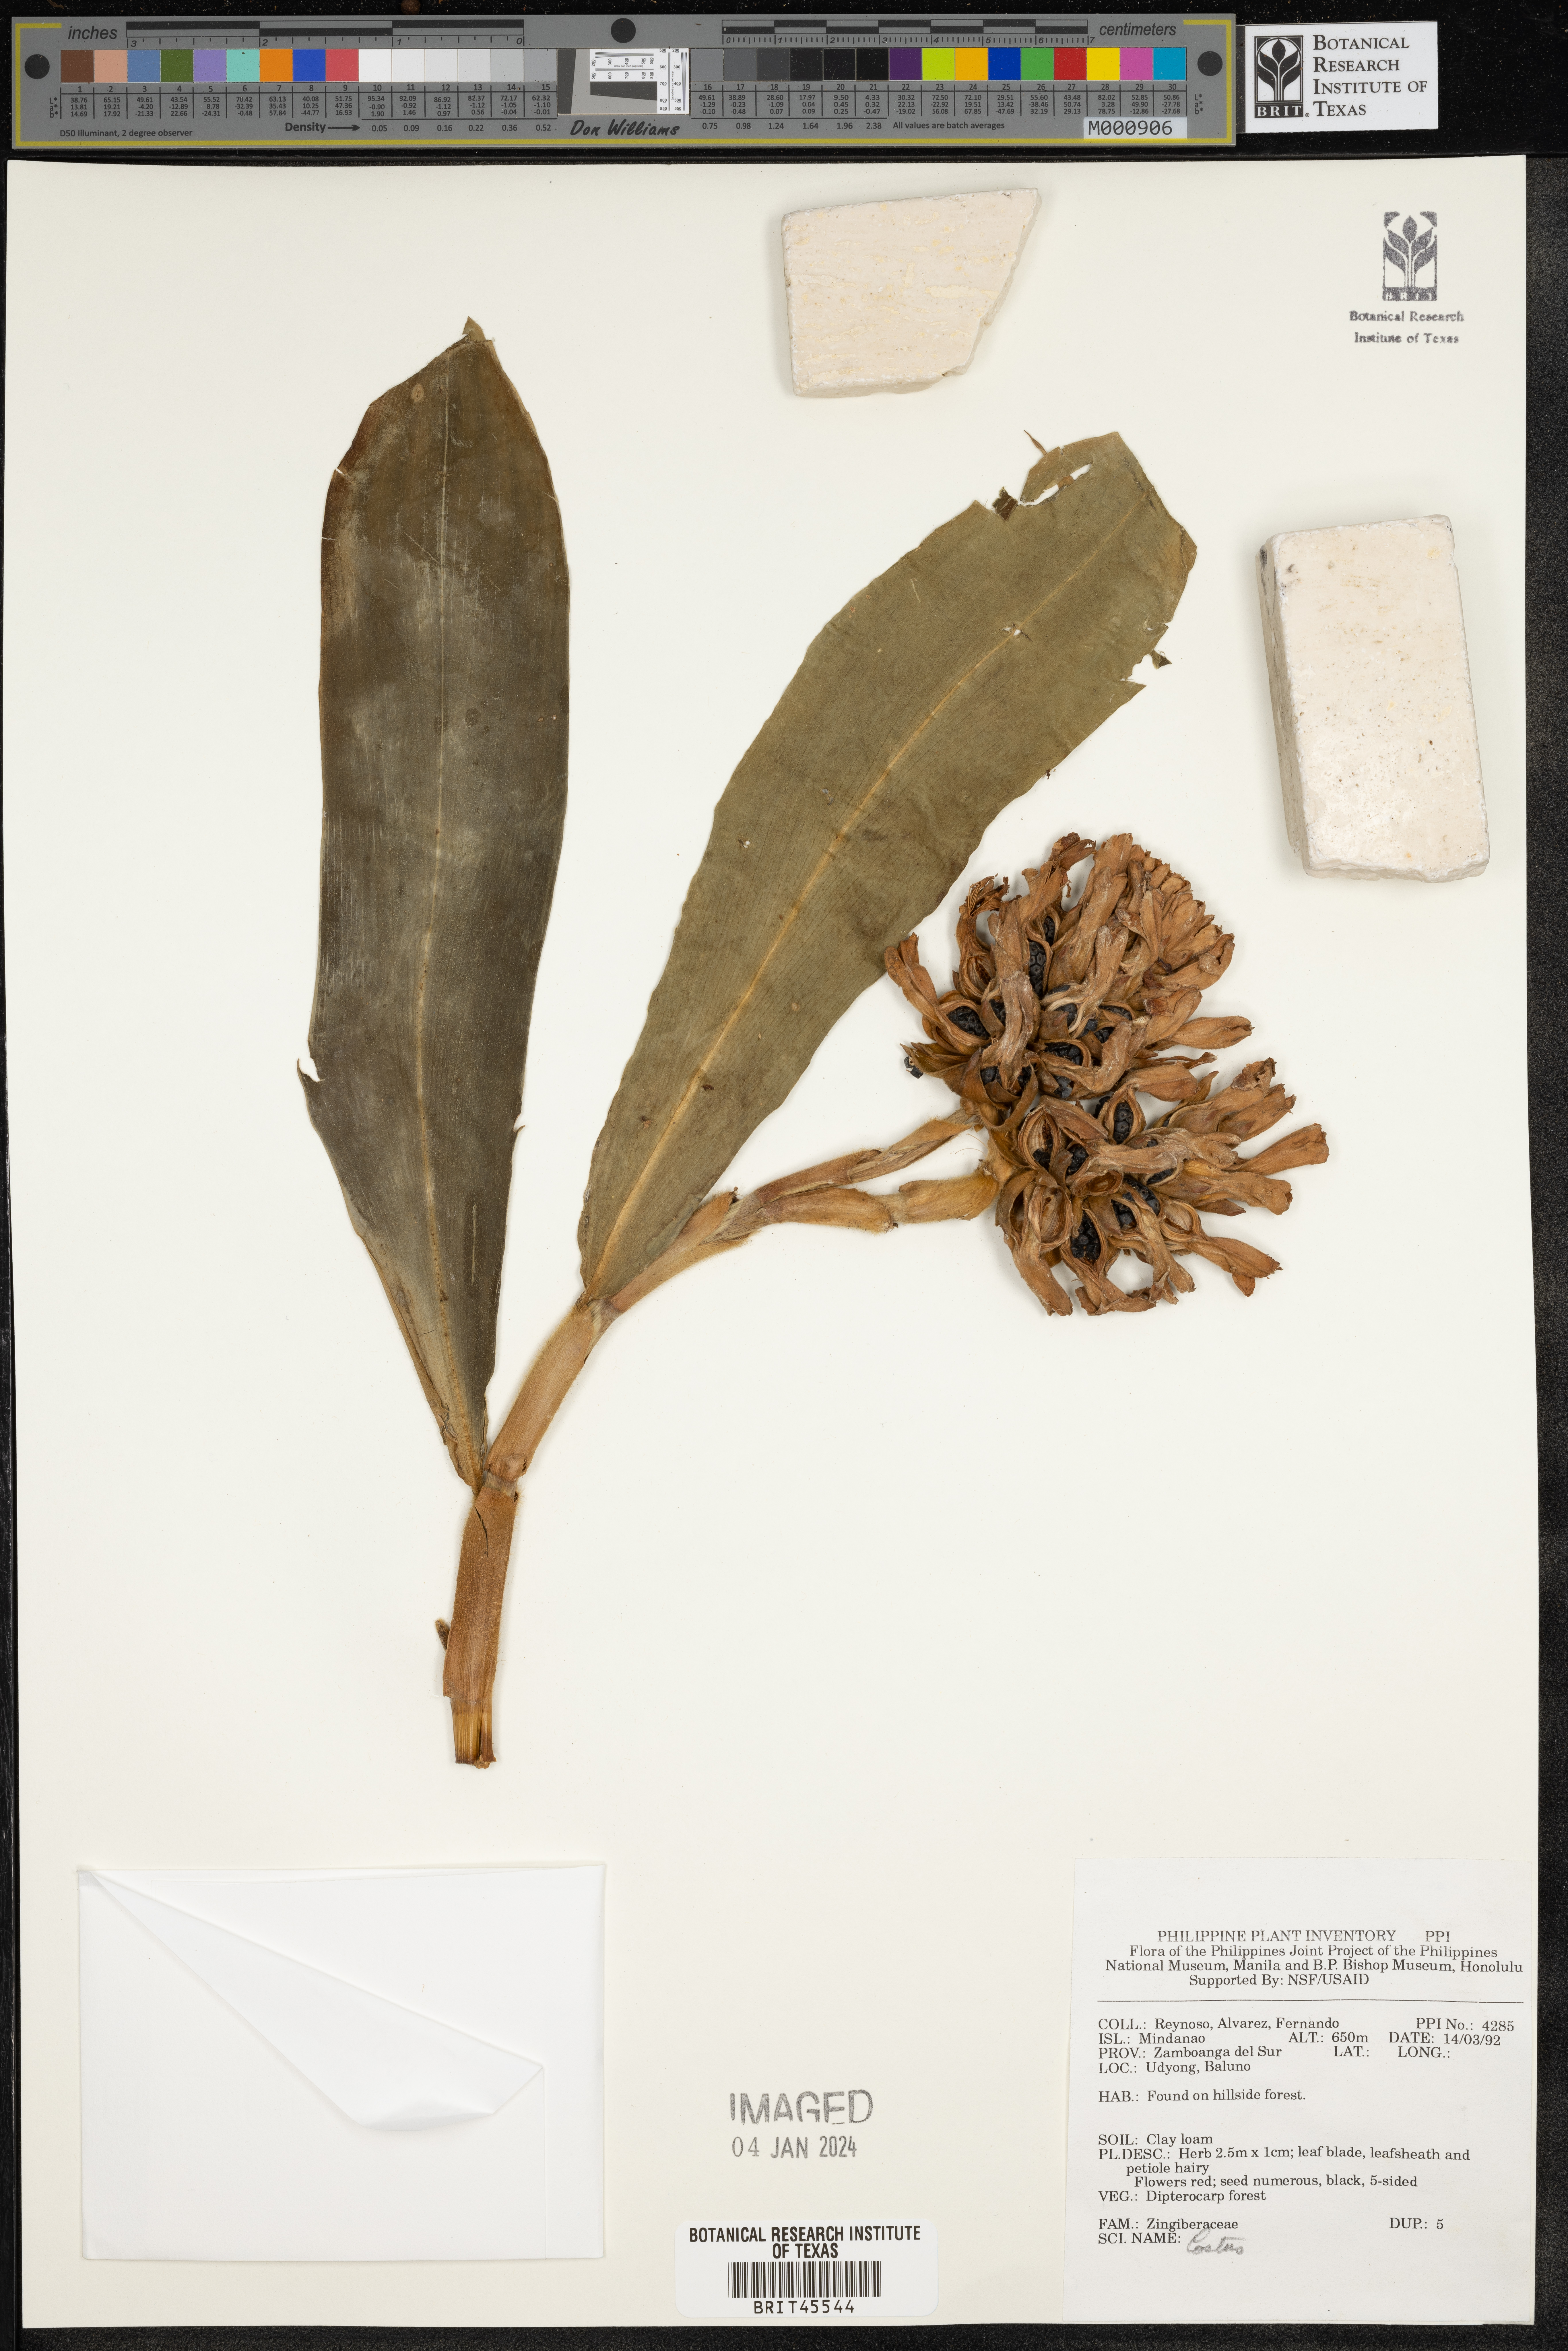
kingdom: Plantae
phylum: Tracheophyta
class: Liliopsida
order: Zingiberales
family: Costaceae
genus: Costus
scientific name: Costus
